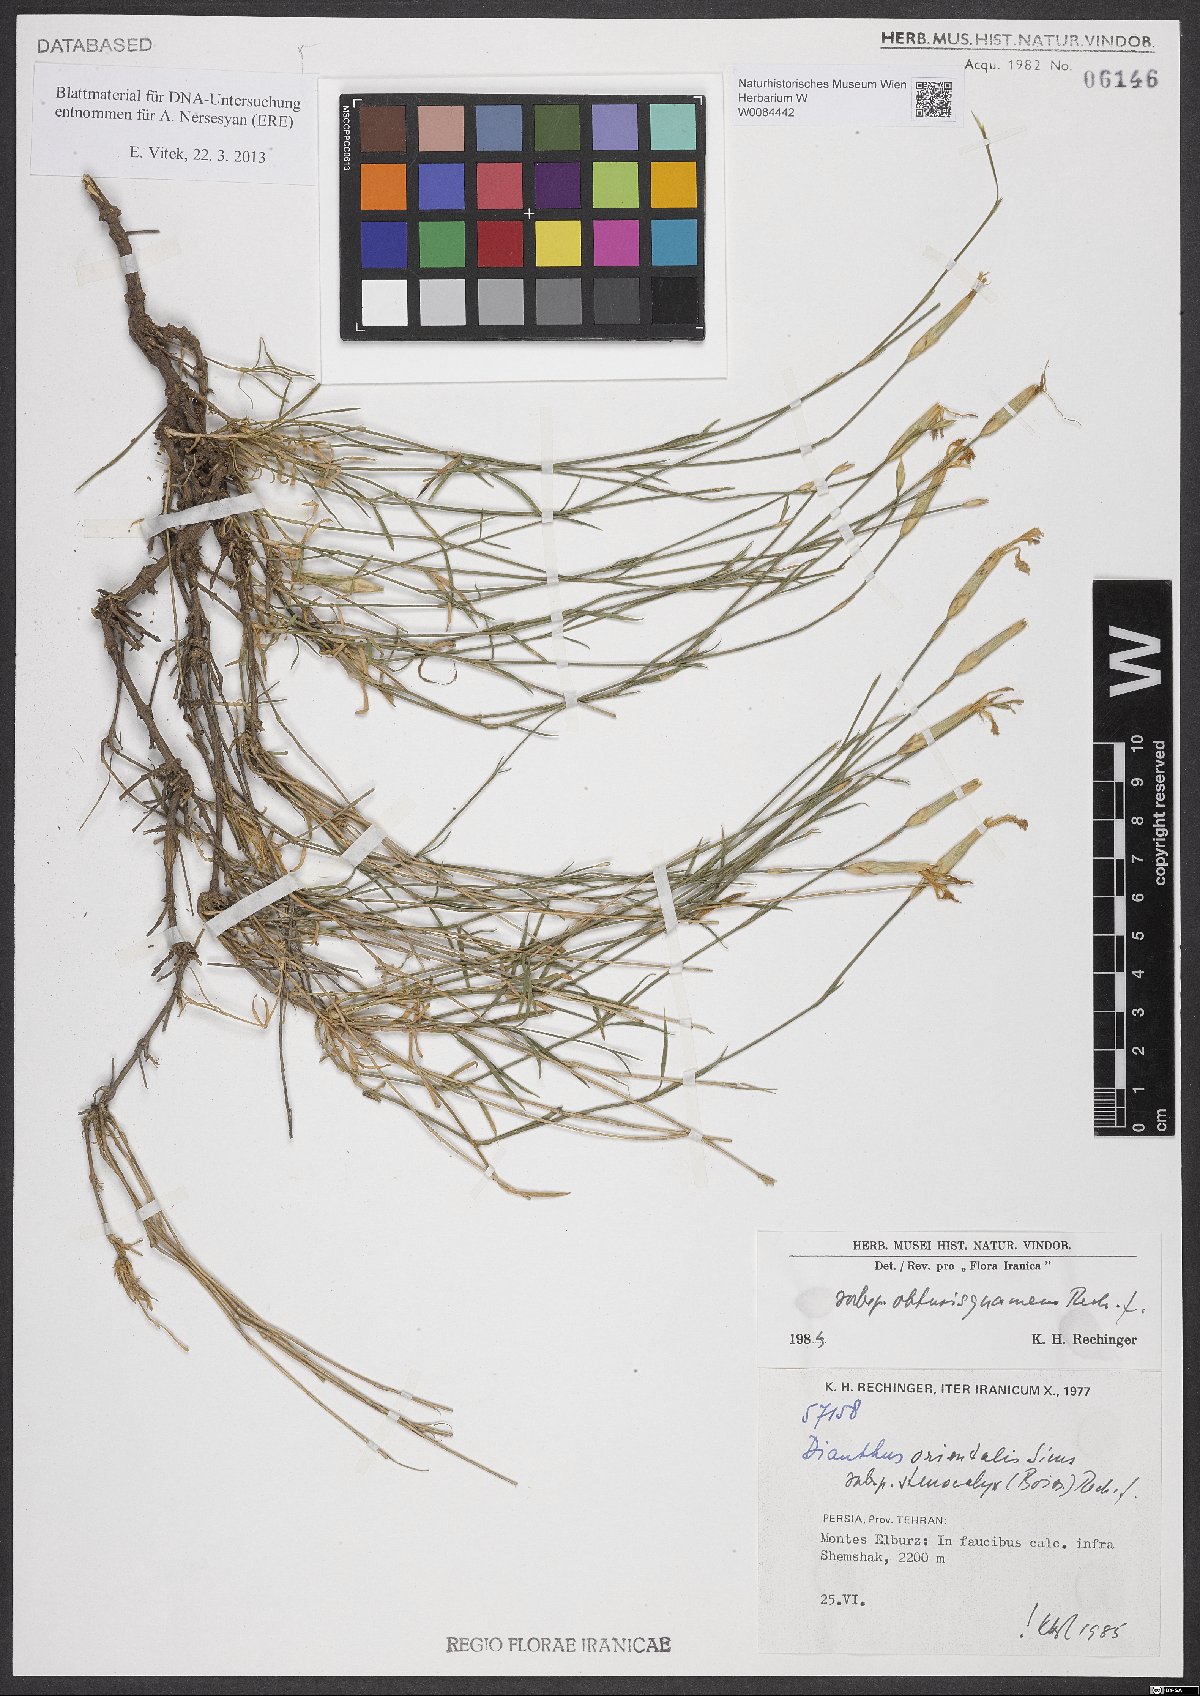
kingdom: Plantae
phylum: Tracheophyta
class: Magnoliopsida
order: Caryophyllales
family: Caryophyllaceae
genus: Dianthus
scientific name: Dianthus orientalis
